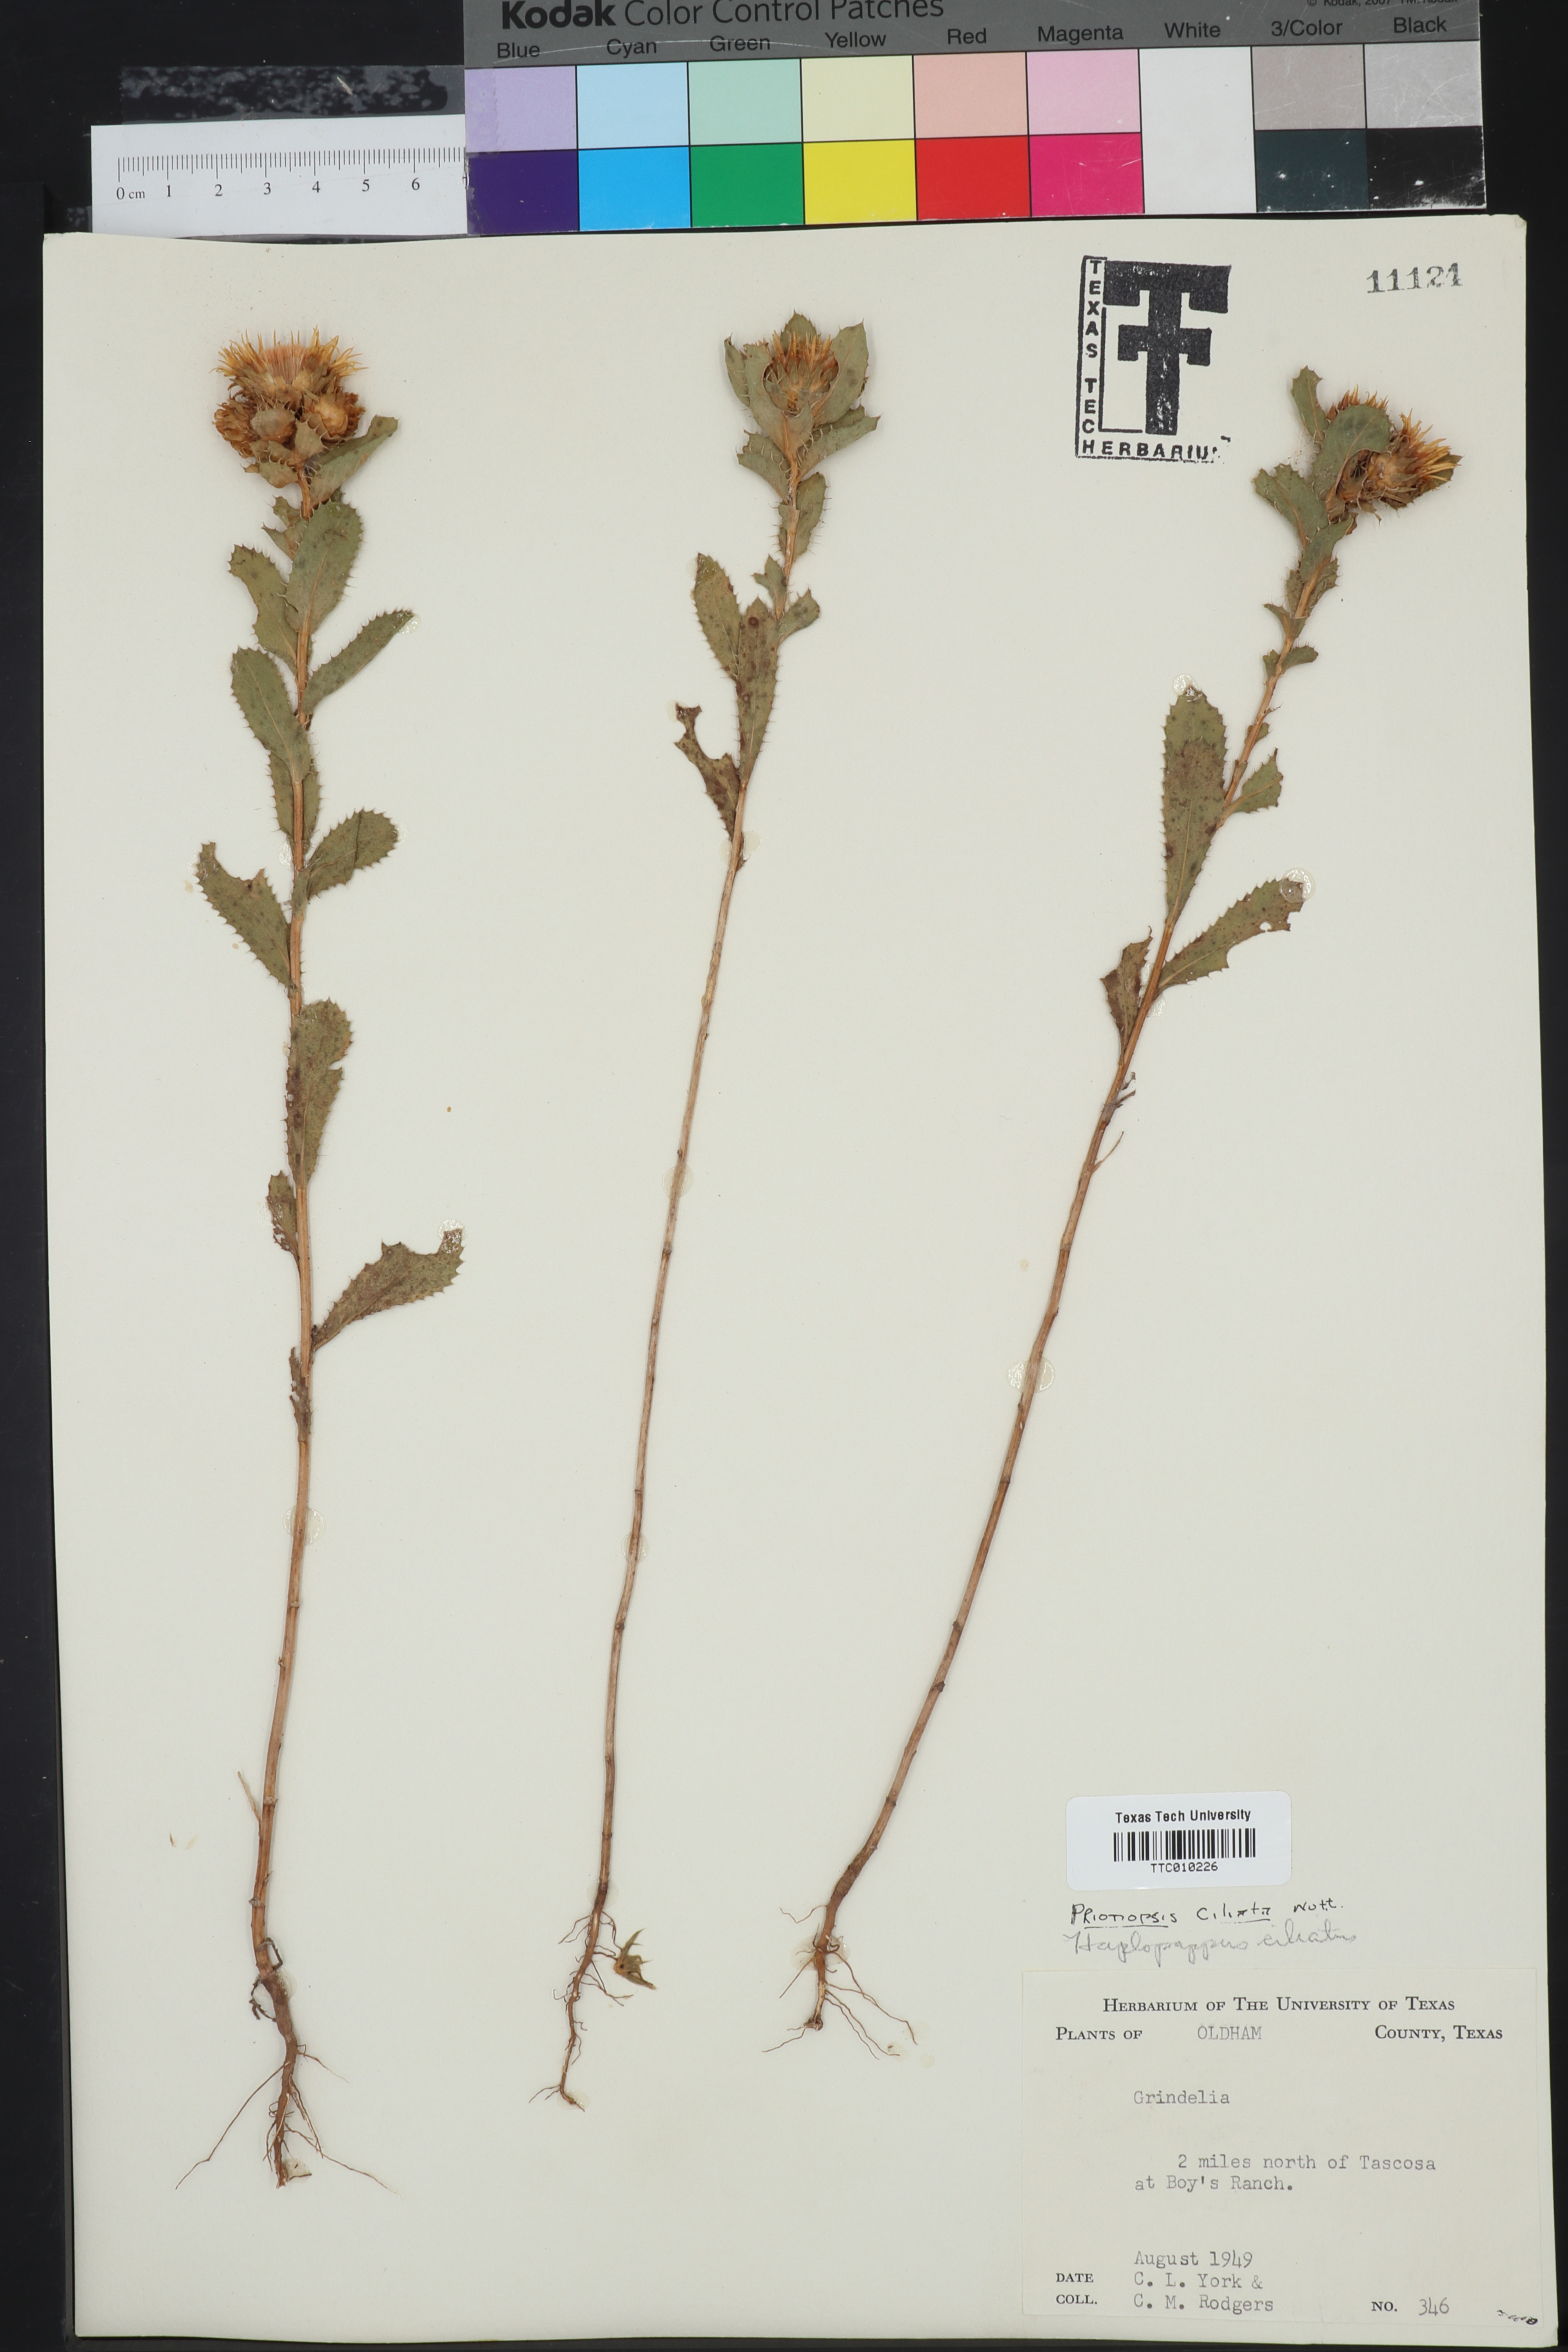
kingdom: Plantae
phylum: Tracheophyta
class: Magnoliopsida
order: Asterales
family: Asteraceae
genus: Grindelia
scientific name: Grindelia ciliata
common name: Goldenweed
